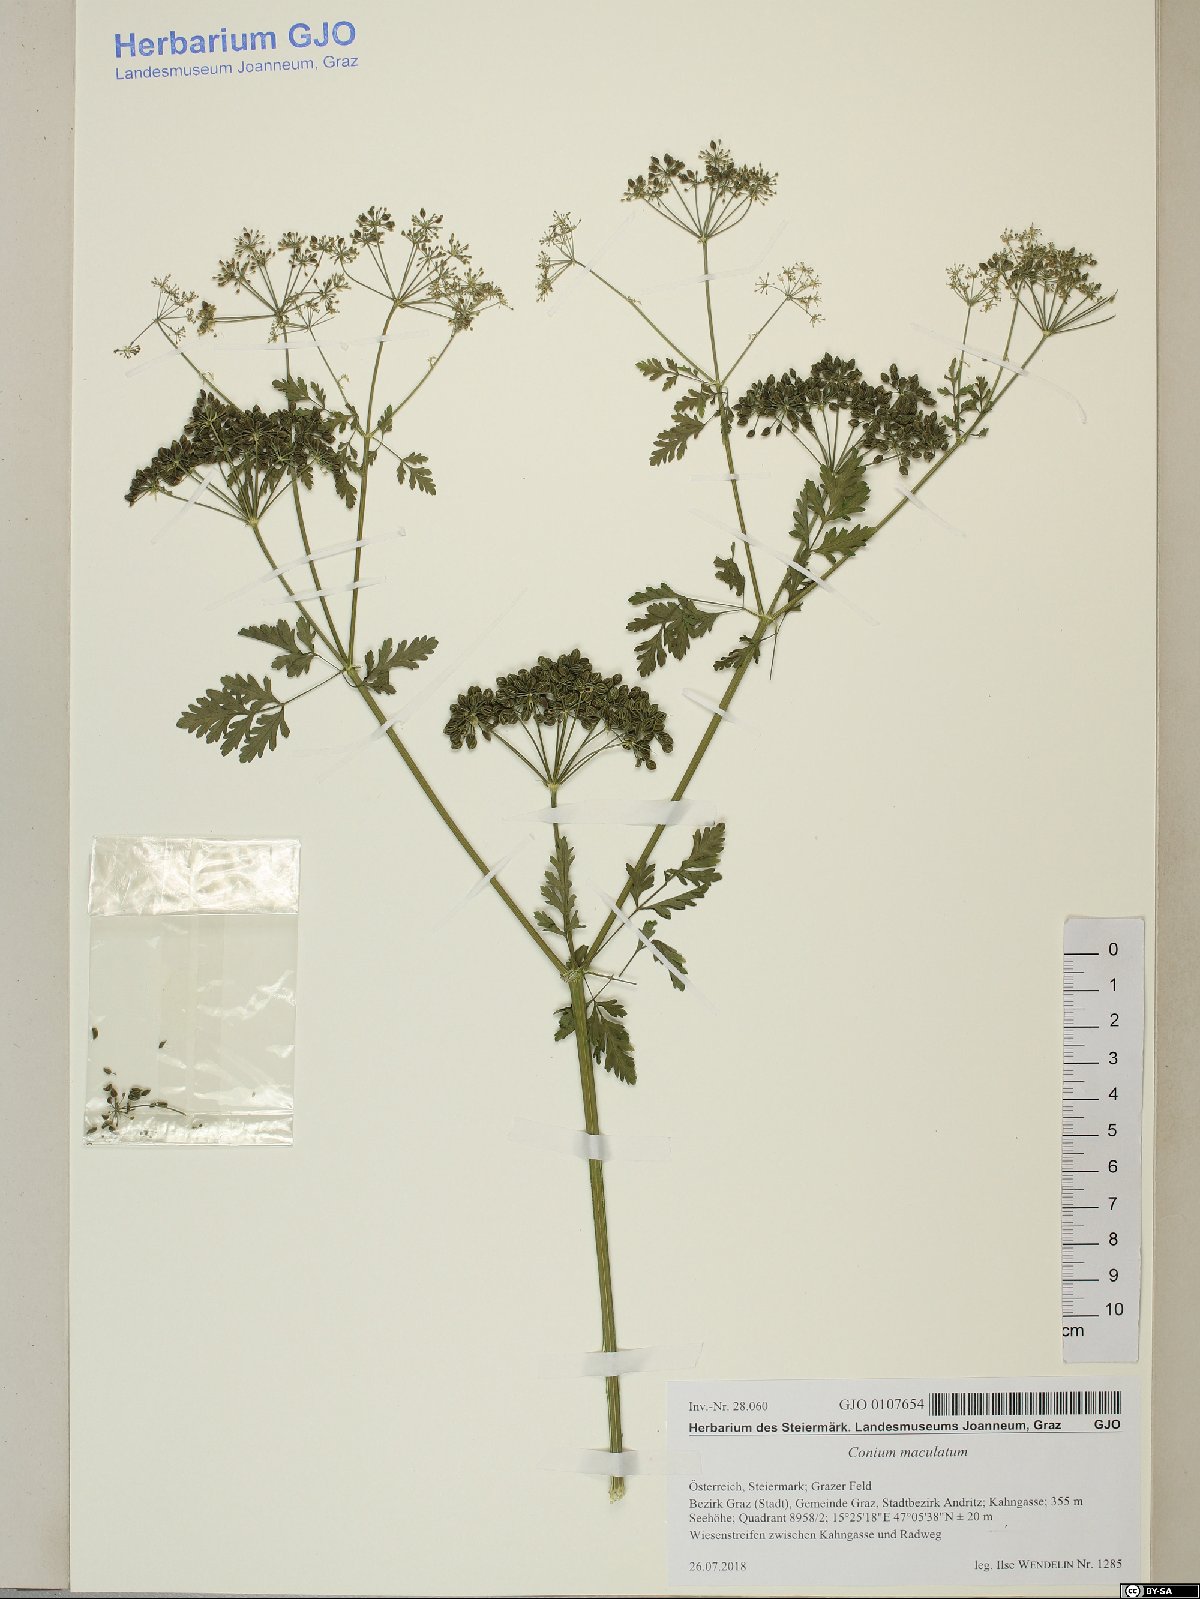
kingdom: Plantae
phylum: Tracheophyta
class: Magnoliopsida
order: Apiales
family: Apiaceae
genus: Conium
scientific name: Conium maculatum
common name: Hemlock
